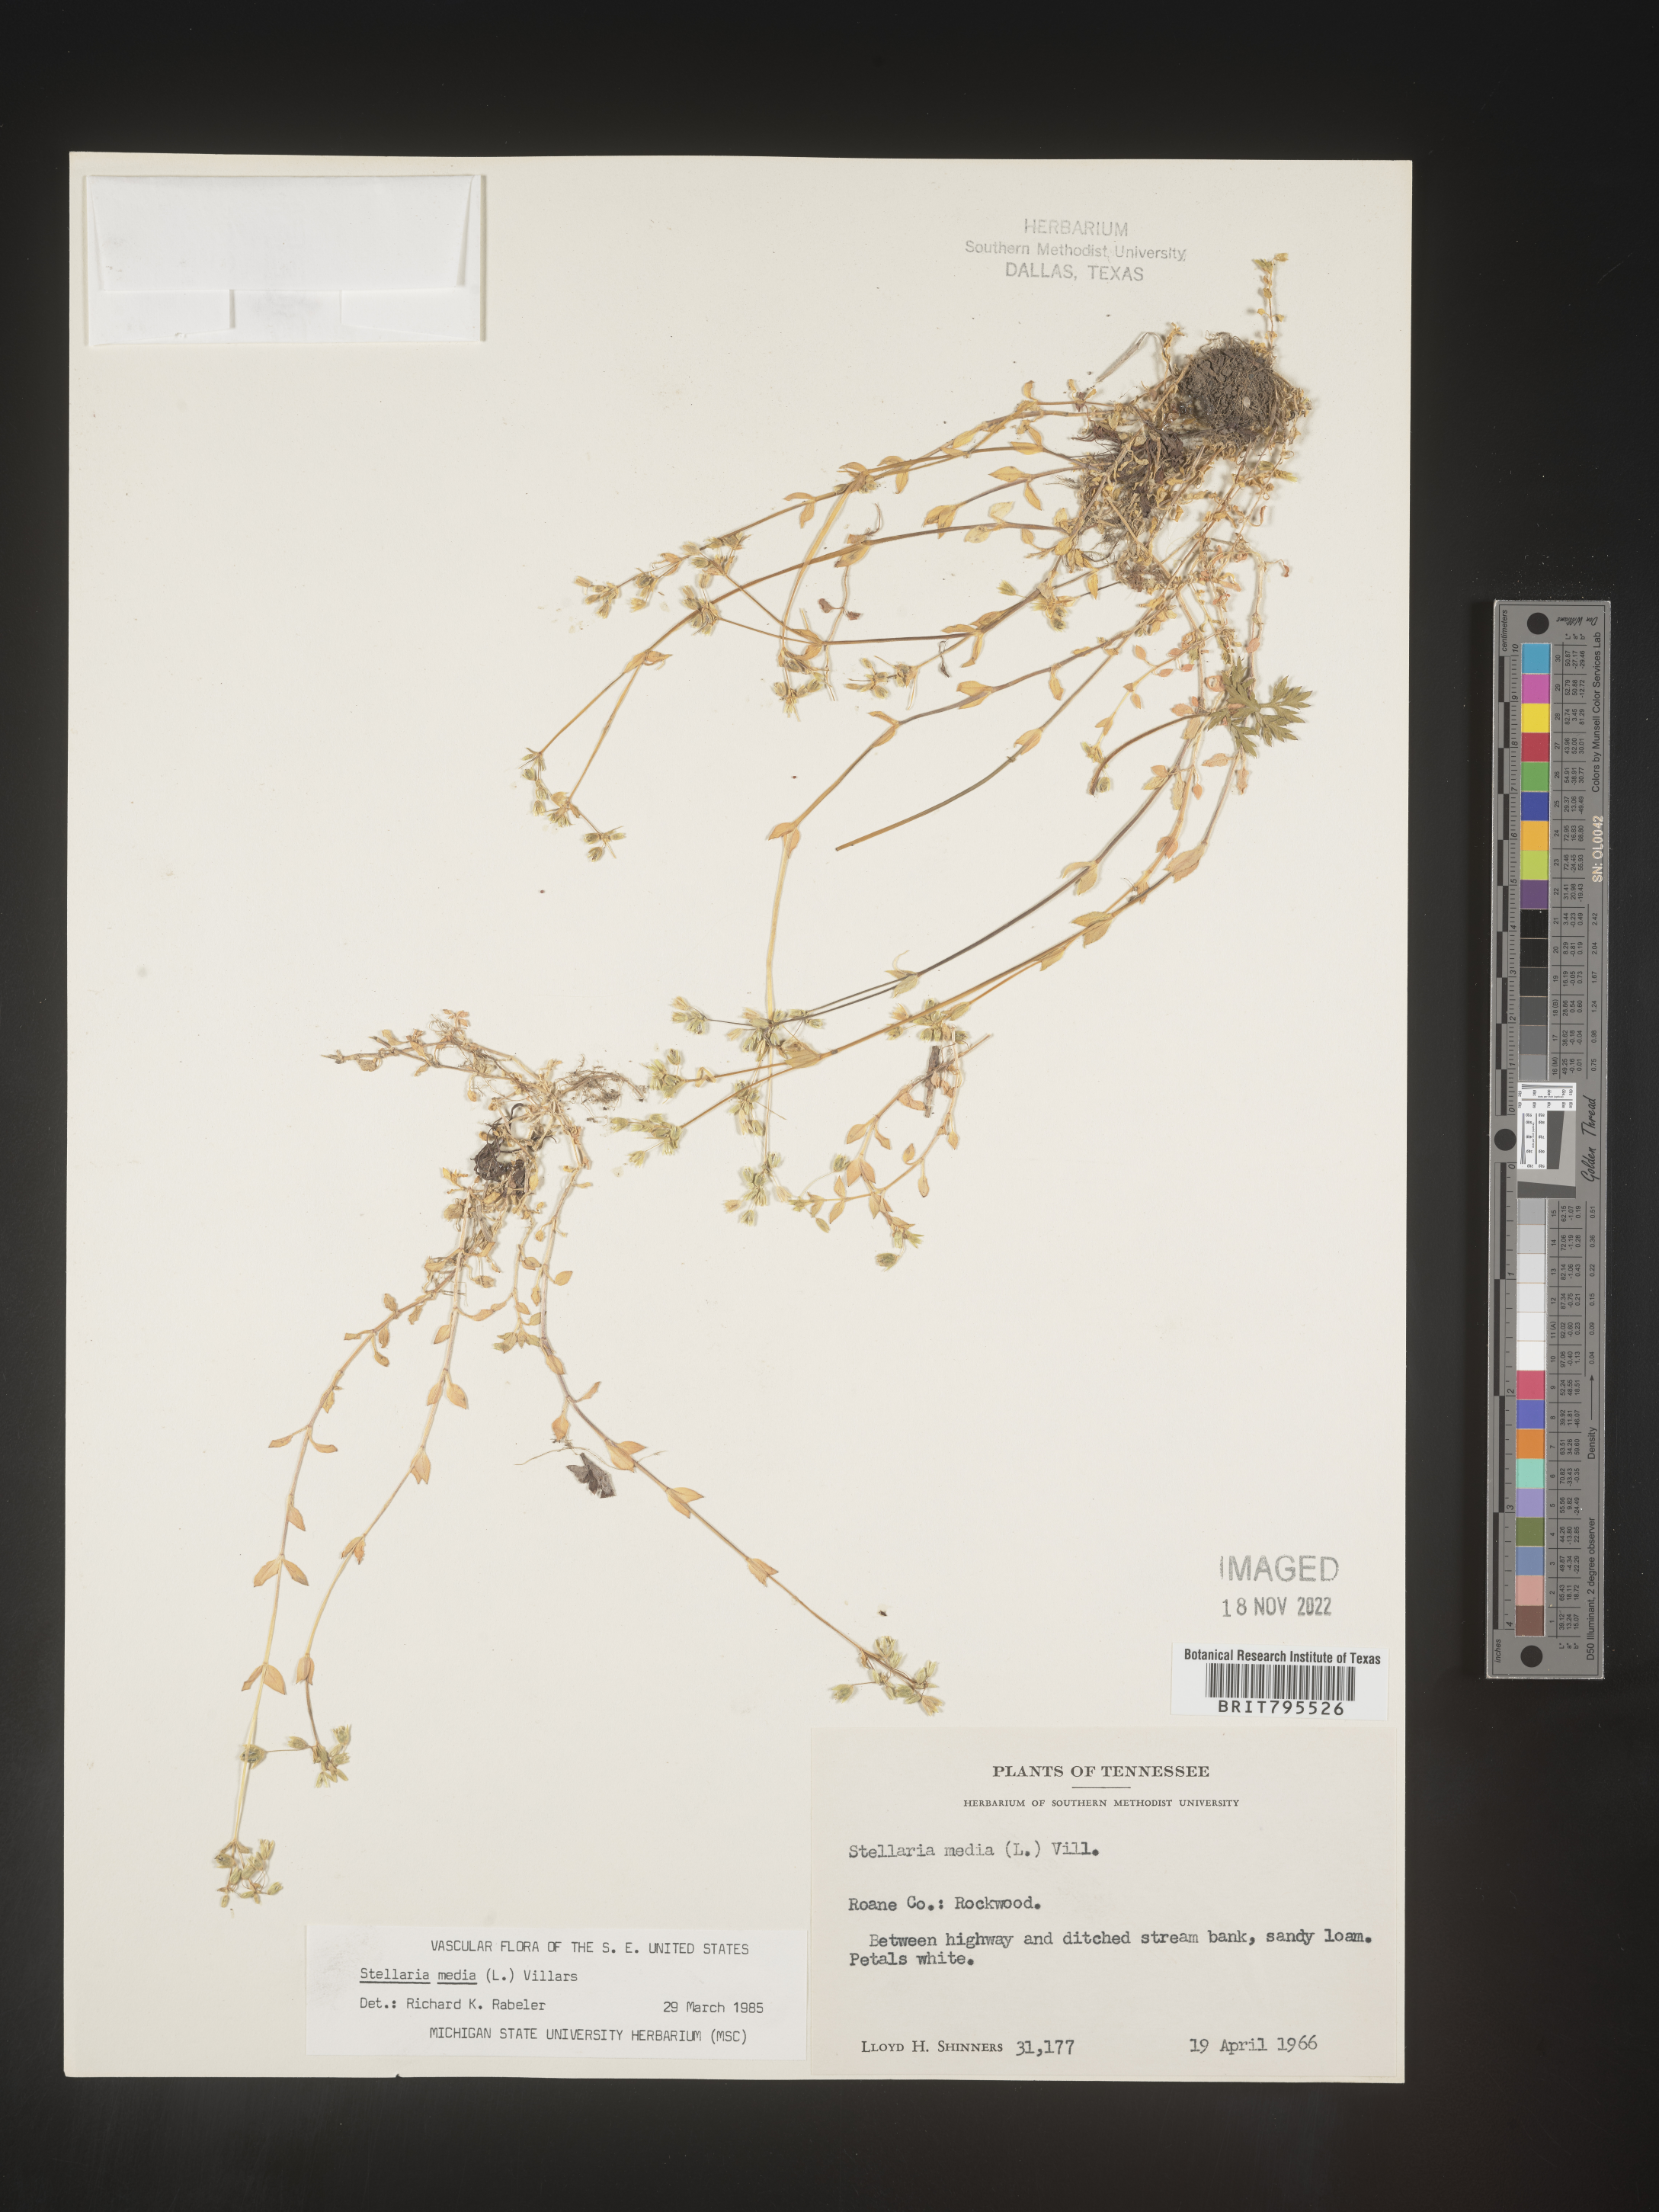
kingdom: Plantae
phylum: Tracheophyta
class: Magnoliopsida
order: Caryophyllales
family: Caryophyllaceae
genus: Stellaria
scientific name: Stellaria media
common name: Common chickweed
